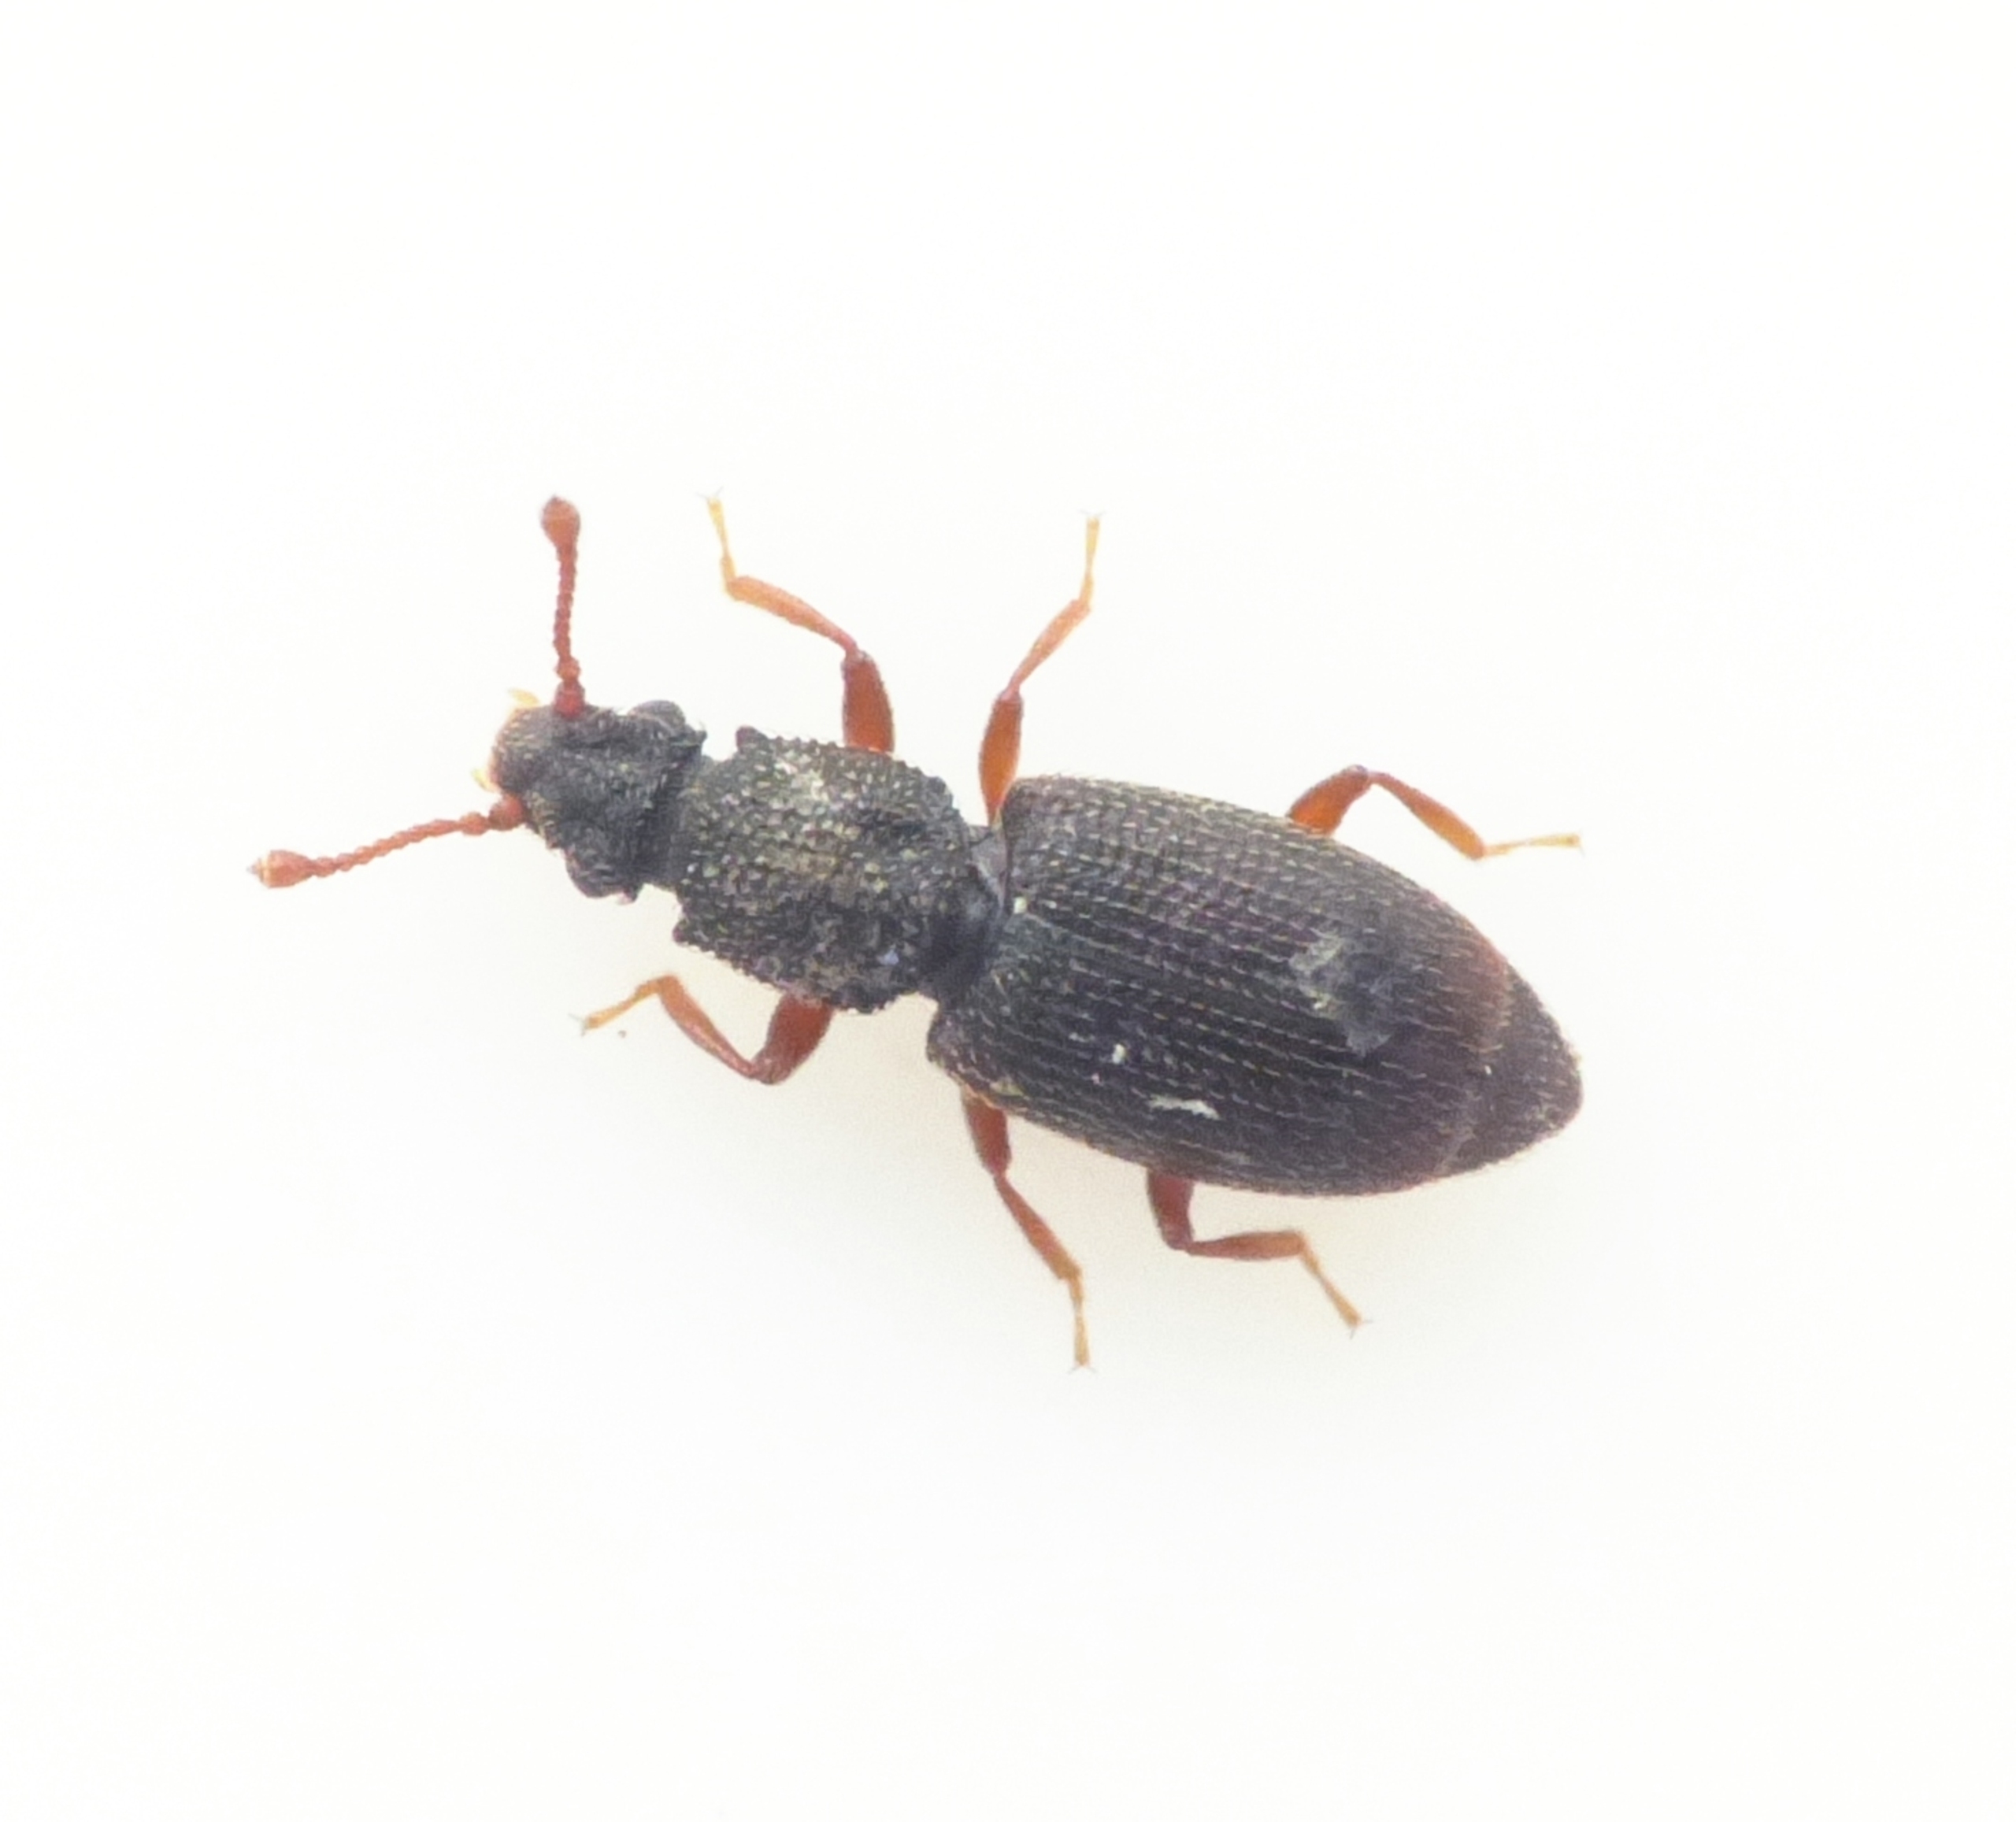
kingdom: Animalia
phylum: Arthropoda
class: Insecta
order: Coleoptera
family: Monotomidae
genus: Monotoma
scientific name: Monotoma picipes
